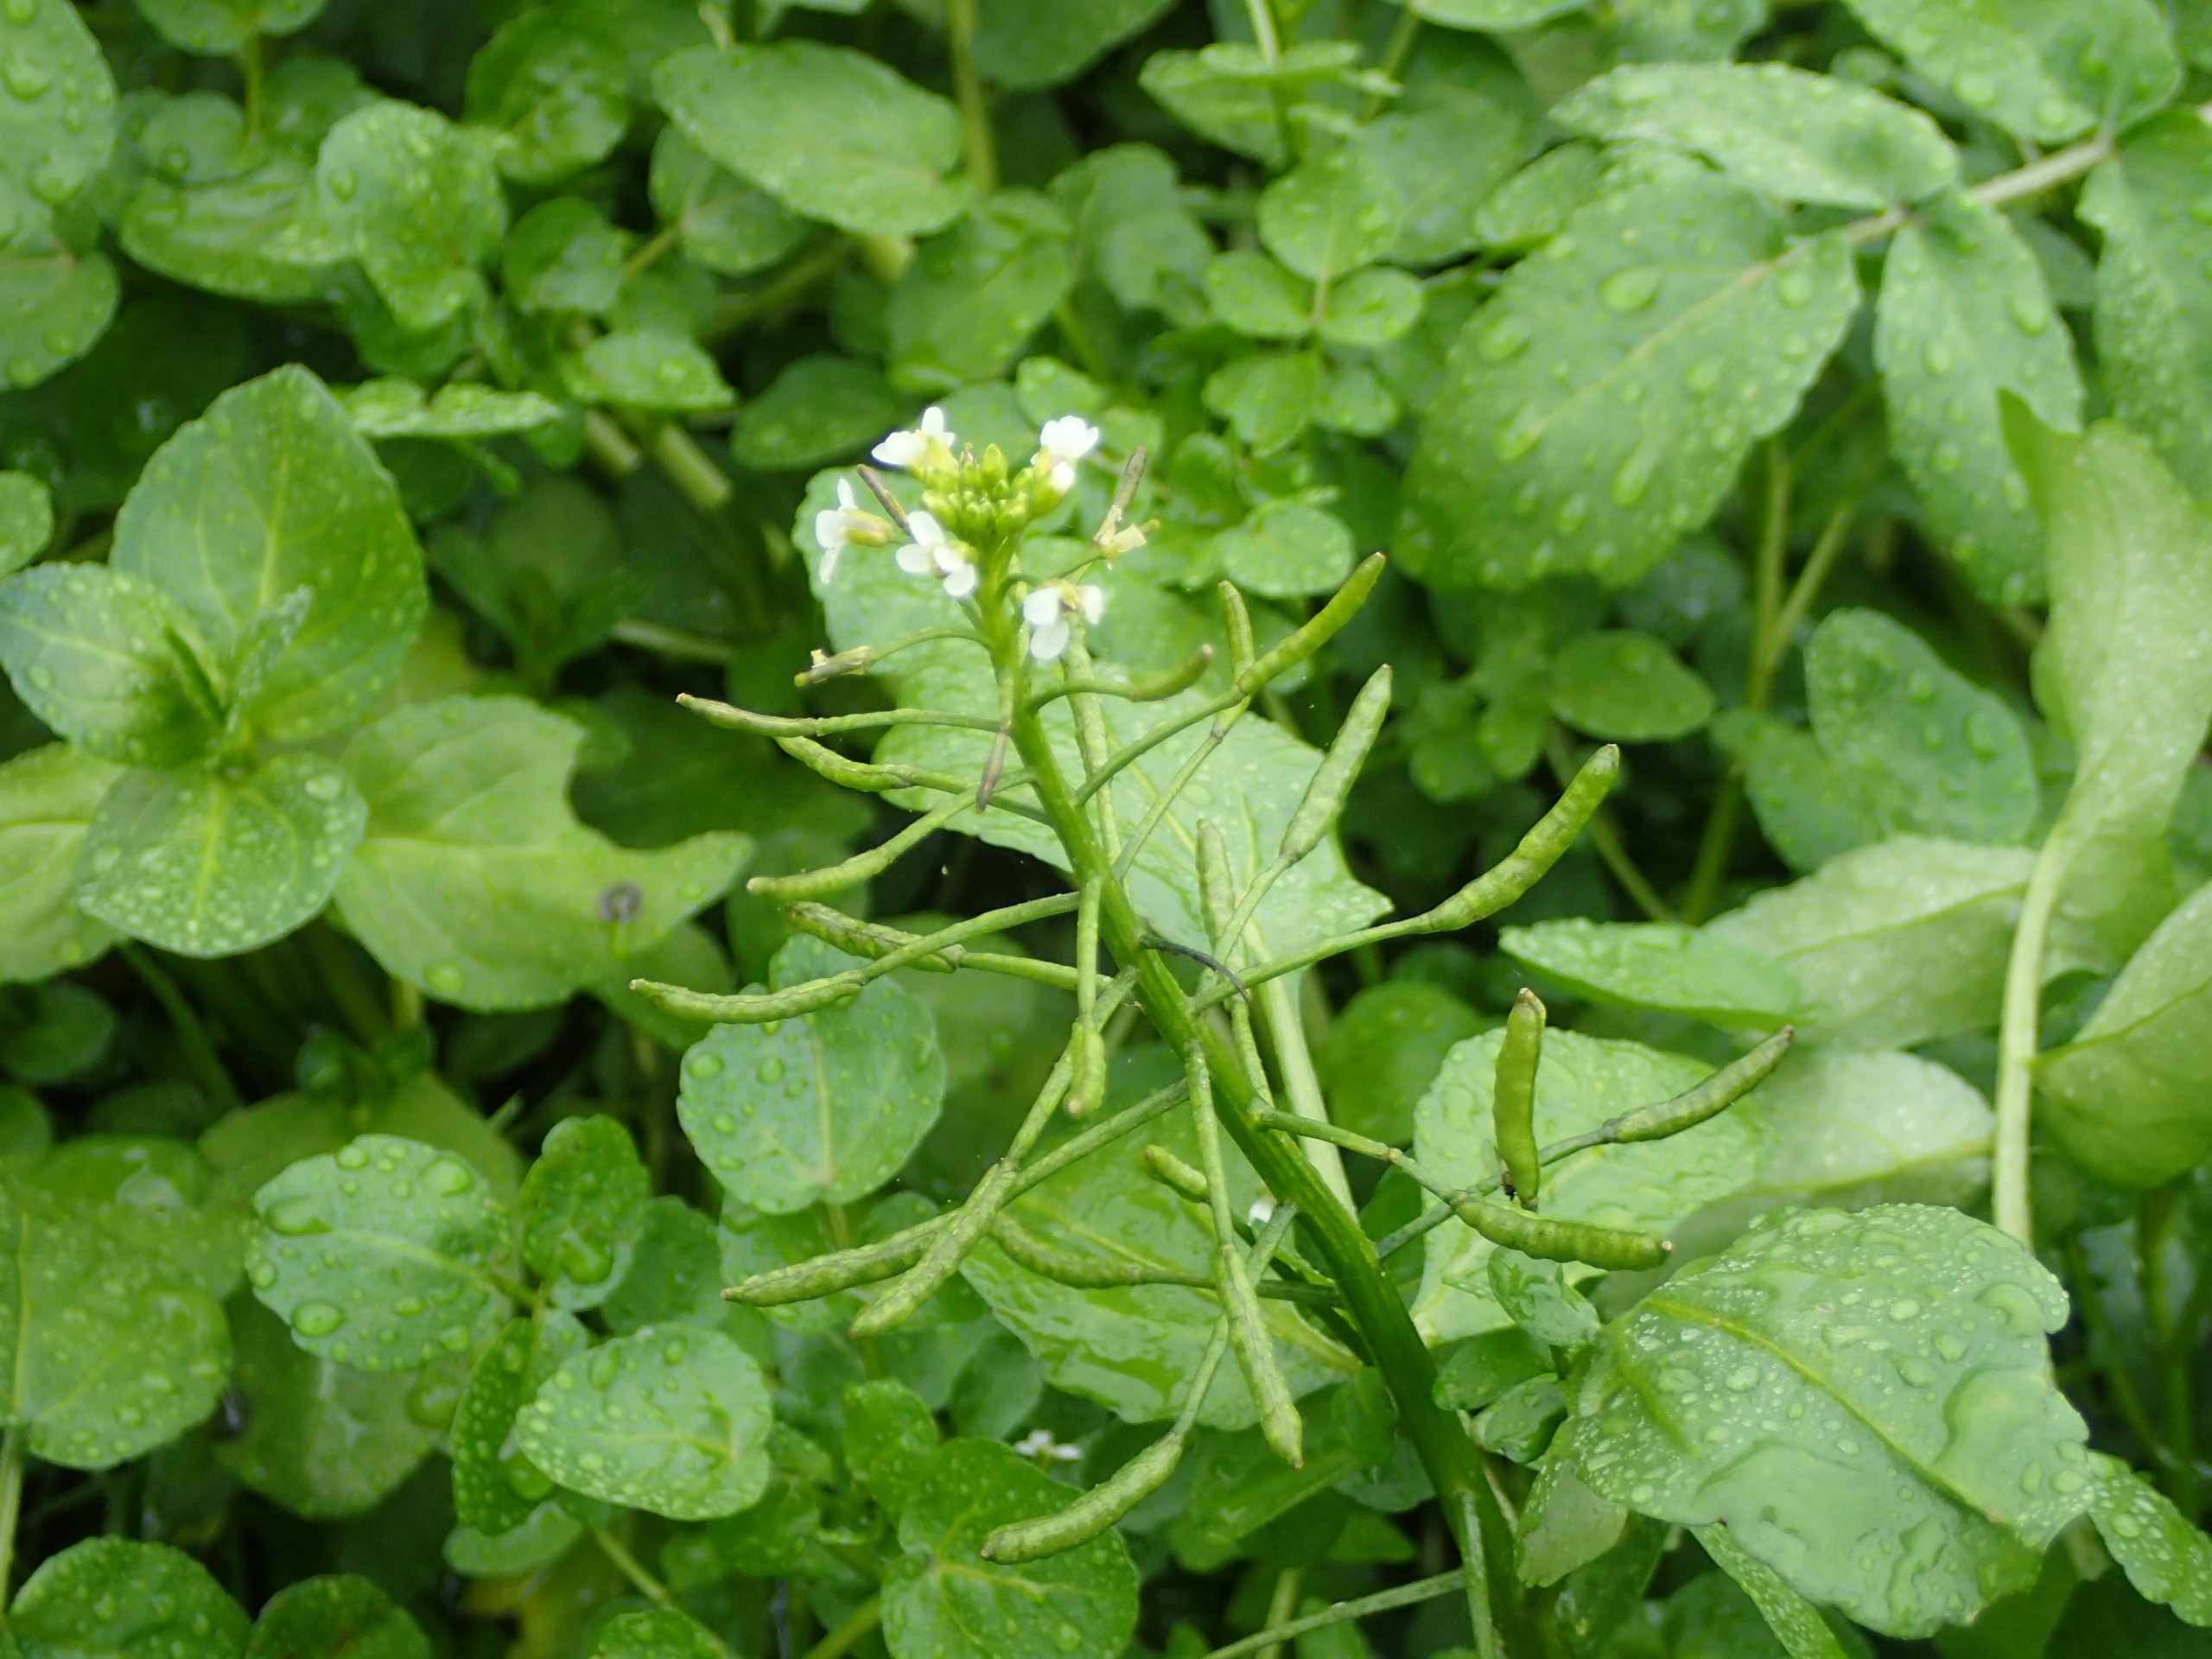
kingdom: Plantae
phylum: Tracheophyta
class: Magnoliopsida
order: Brassicales
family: Brassicaceae
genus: Nasturtium
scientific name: Nasturtium officinale
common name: Tykskulpet brøndkarse
